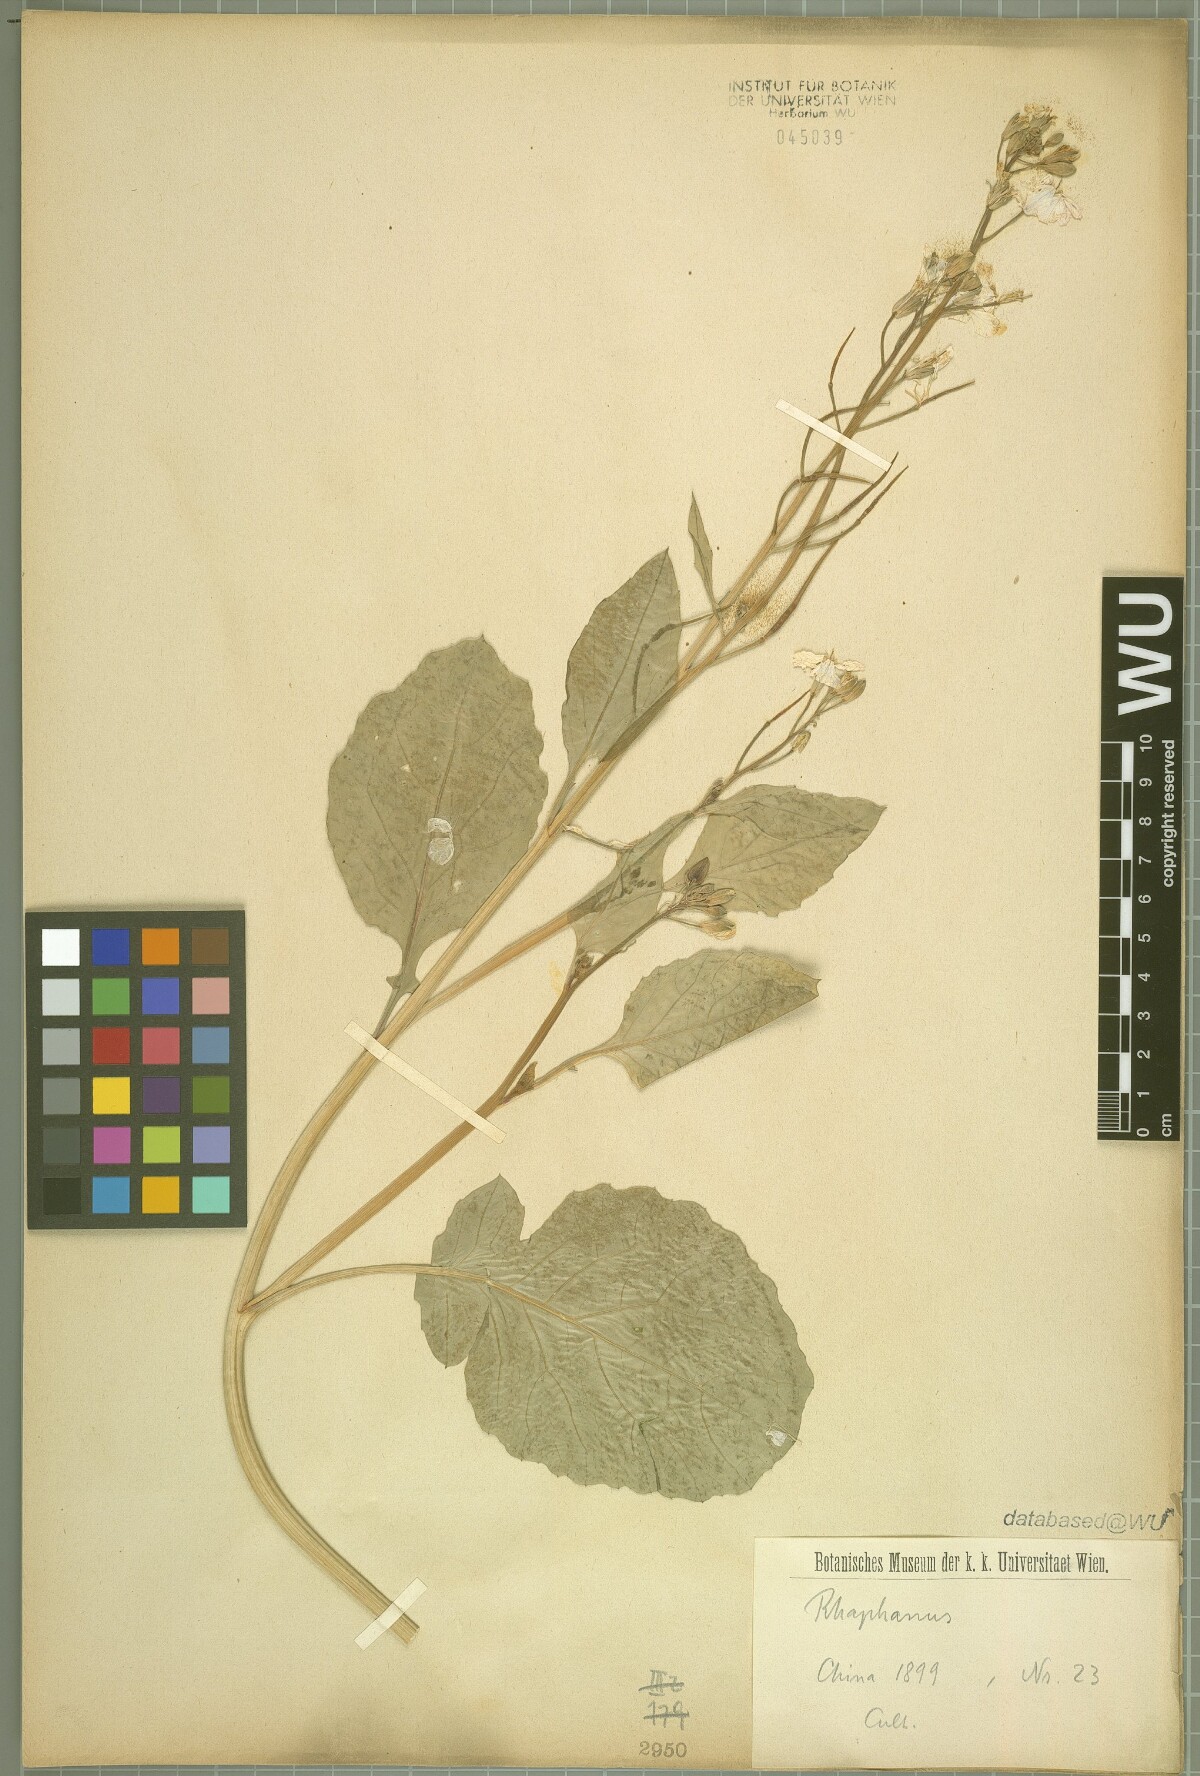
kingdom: Plantae
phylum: Tracheophyta
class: Magnoliopsida
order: Brassicales
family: Brassicaceae
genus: Raphanus
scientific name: Raphanus
